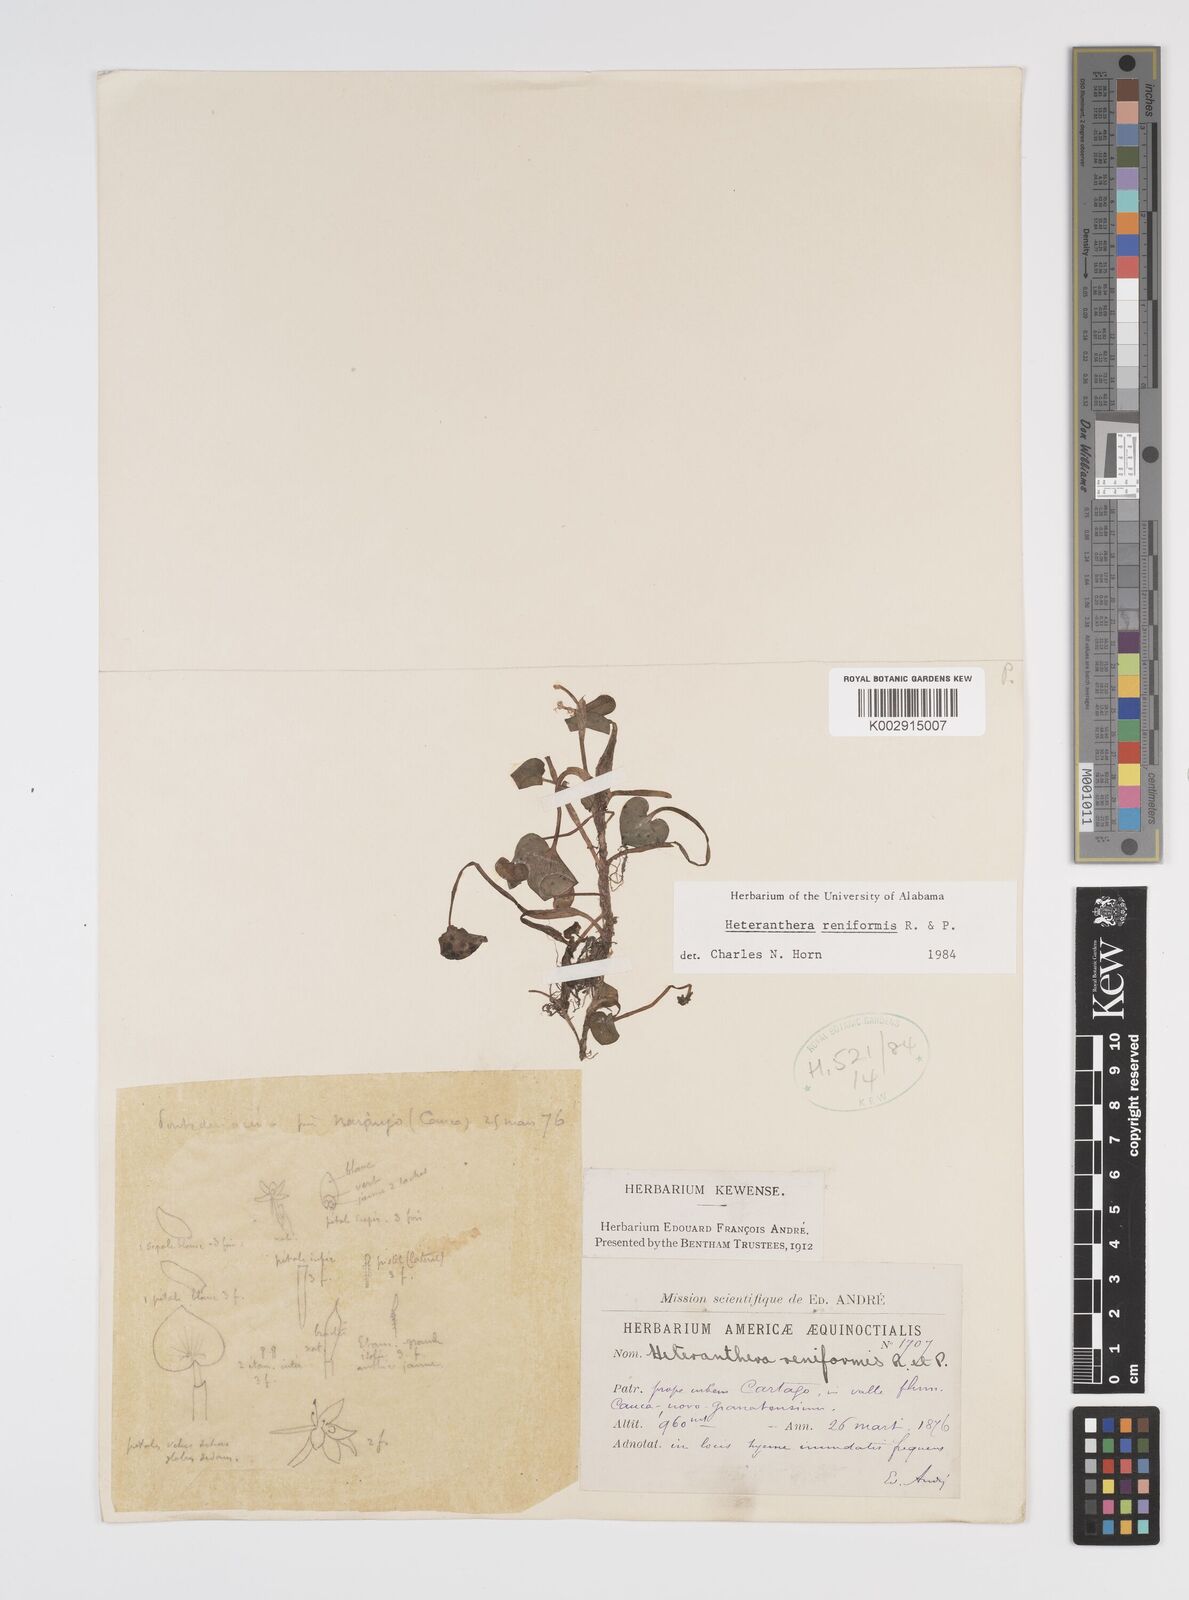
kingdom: Plantae
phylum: Tracheophyta
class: Liliopsida
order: Commelinales
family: Pontederiaceae
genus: Heteranthera
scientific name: Heteranthera reniformis
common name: Kidneyleaf mudplantain
